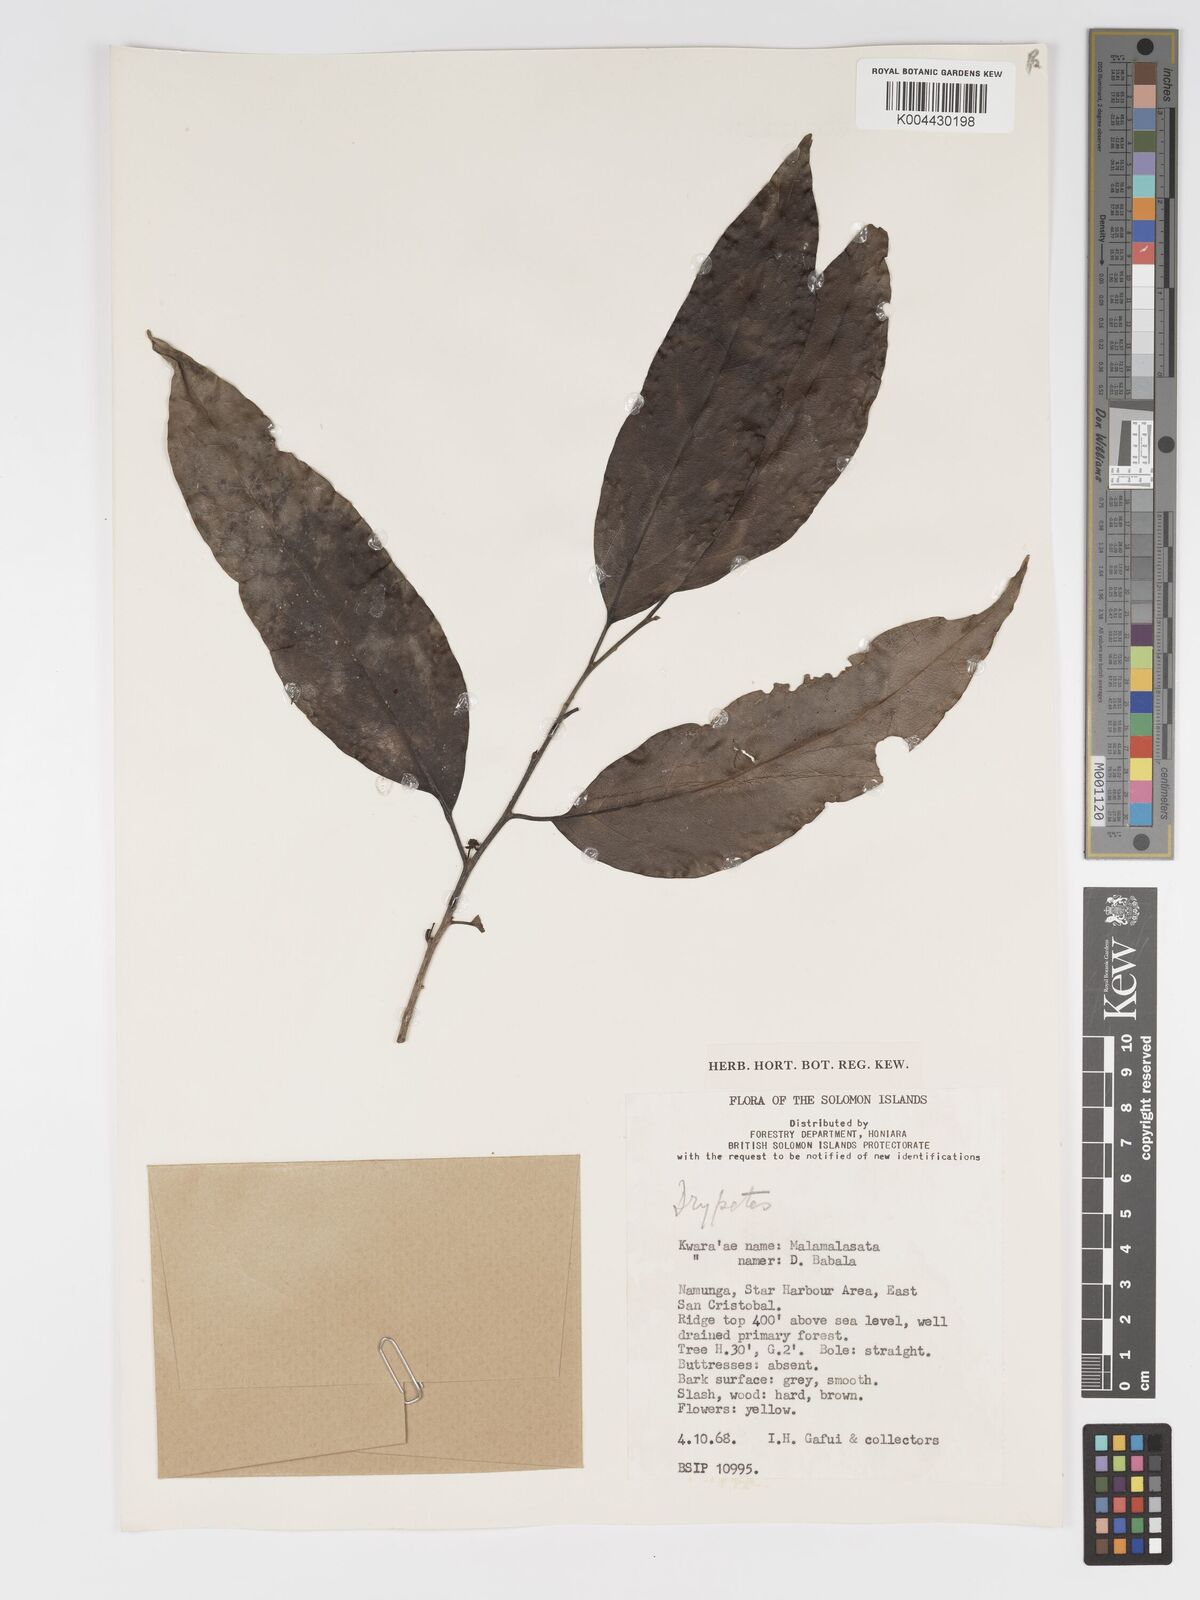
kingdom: Plantae
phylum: Tracheophyta
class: Magnoliopsida
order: Malpighiales
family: Putranjivaceae
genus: Drypetes
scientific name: Drypetes lasiogynoides
